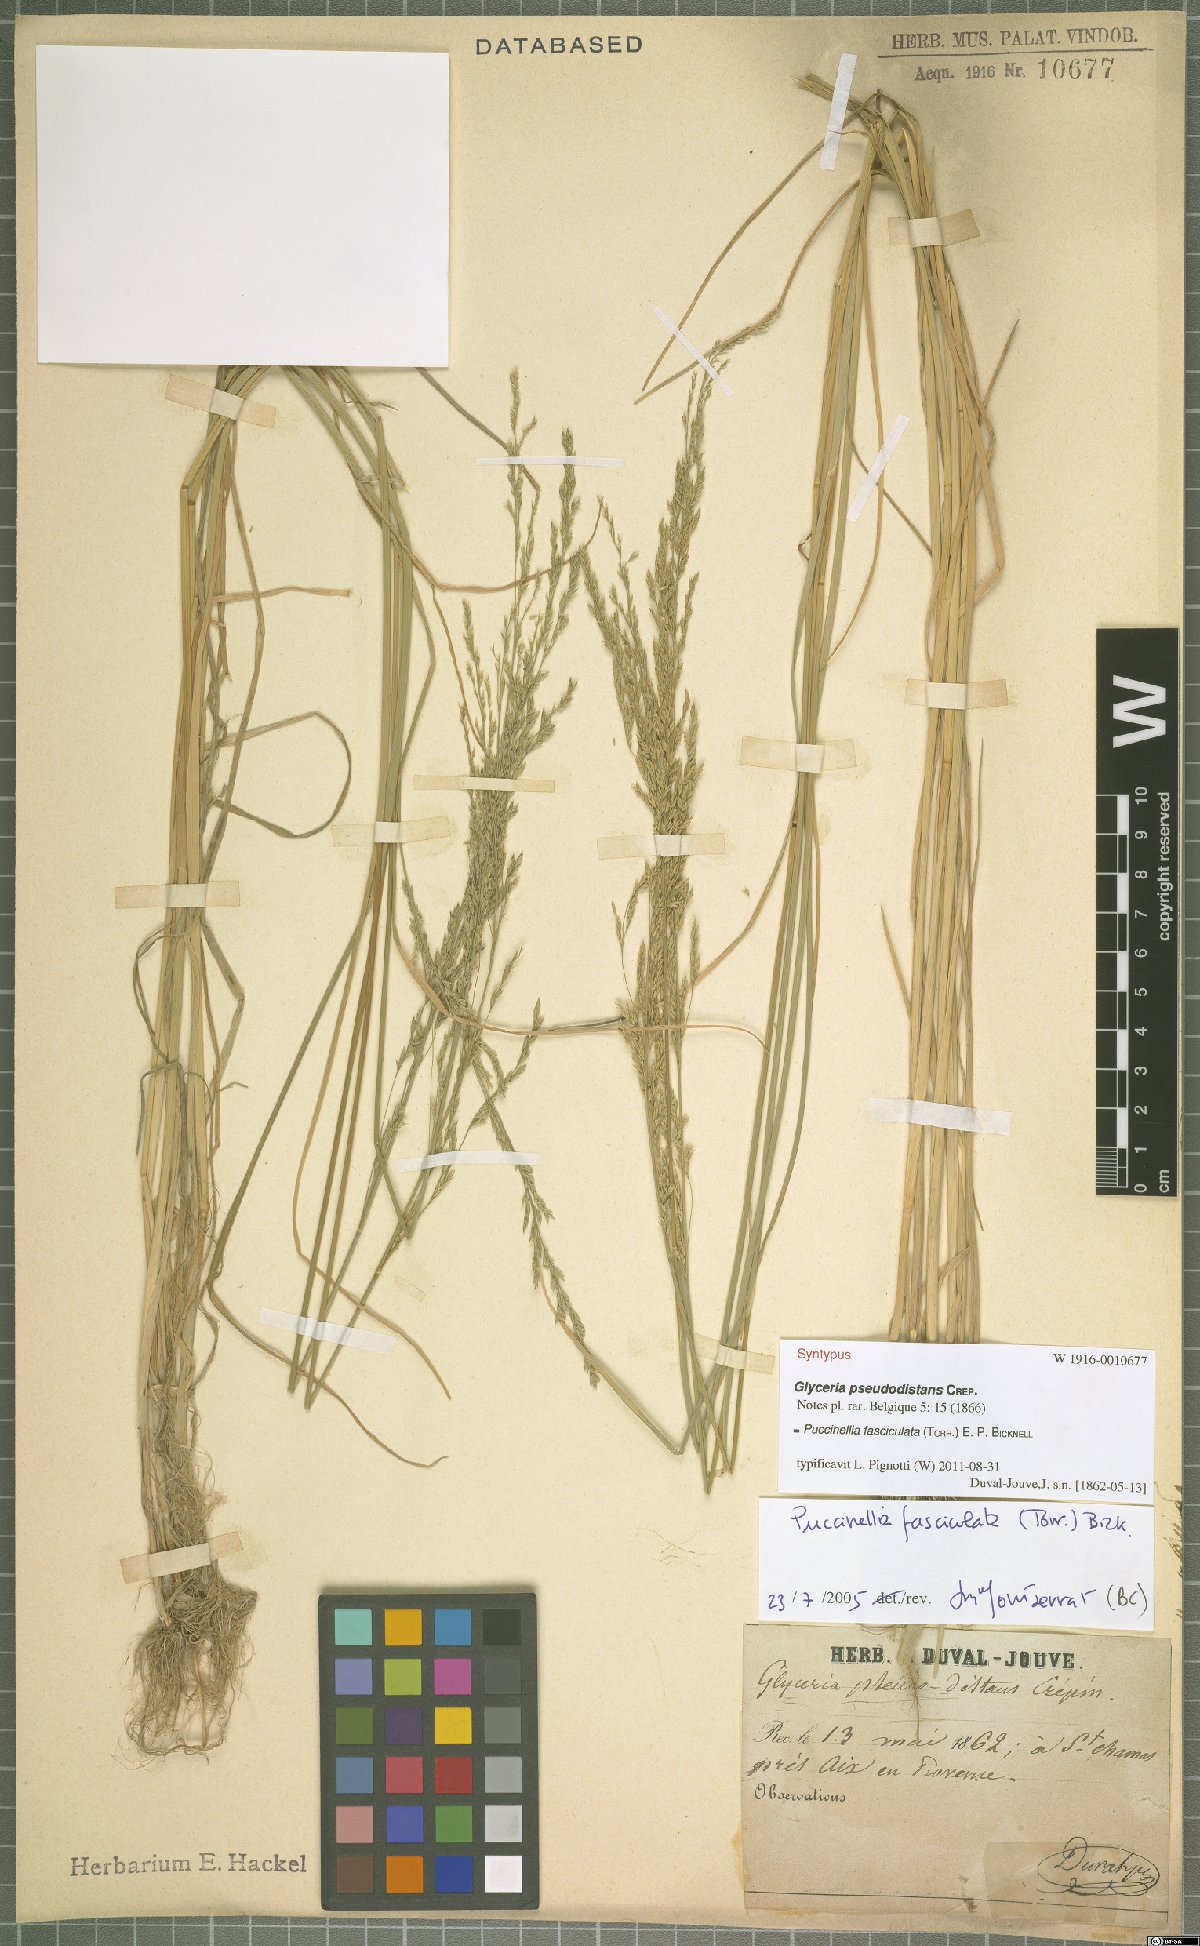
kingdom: Plantae
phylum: Tracheophyta
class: Liliopsida
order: Poales
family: Poaceae
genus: Puccinellia
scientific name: Puccinellia fasciculata
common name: Borrer's saltmarsh-grass
